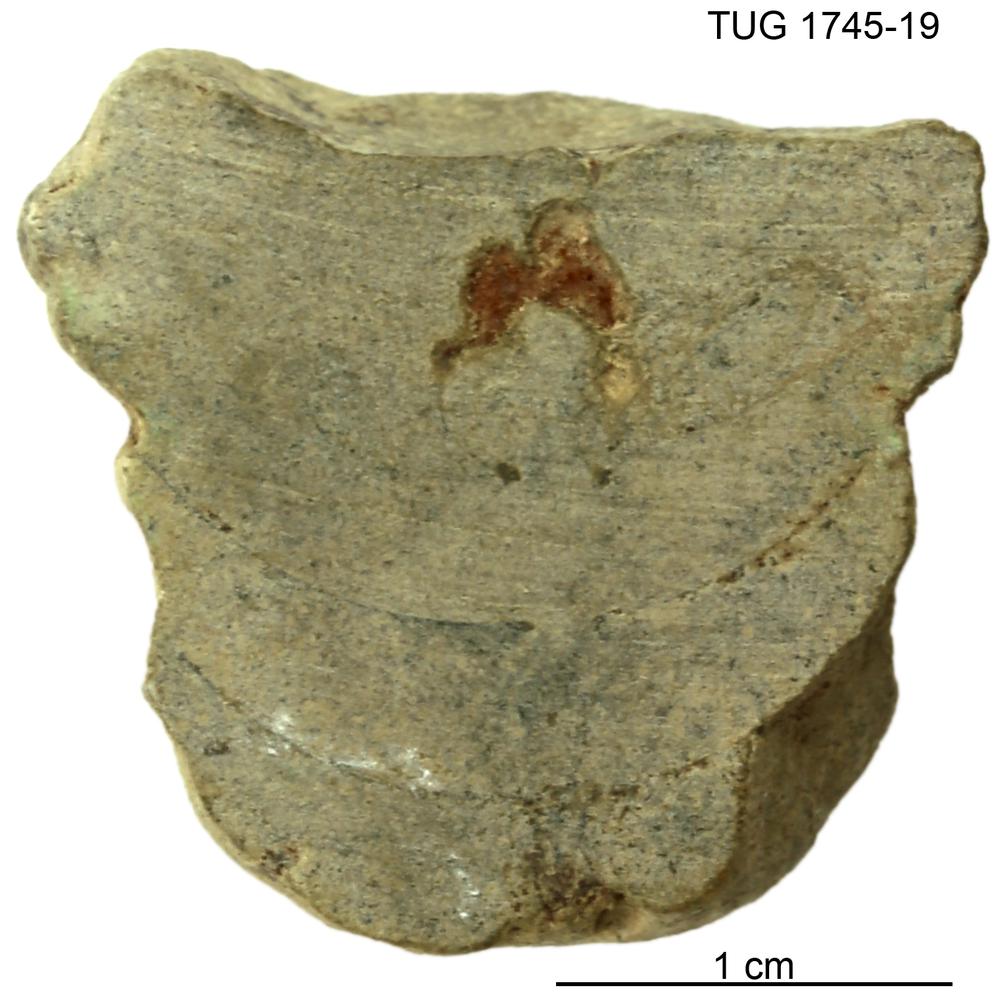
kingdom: Animalia
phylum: Mollusca
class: Cephalopoda
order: Orthocerida
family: Pseudorthoceratidae
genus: Spyroceras
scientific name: Spyroceras
